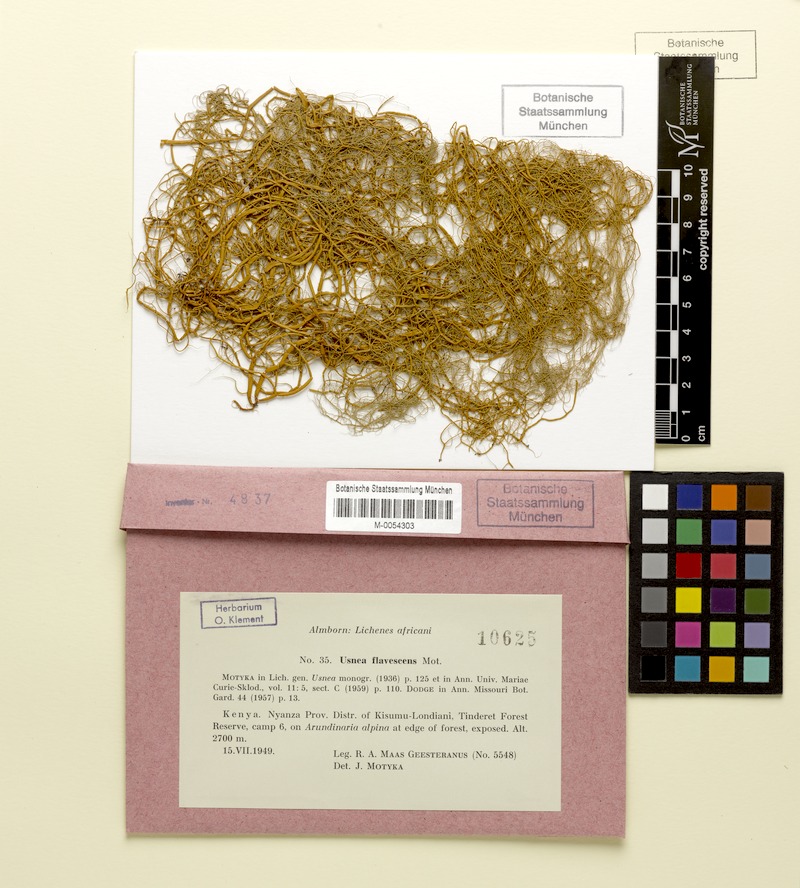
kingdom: Fungi
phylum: Ascomycota
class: Lecanoromycetes
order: Lecanorales
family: Parmeliaceae
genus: Usnea
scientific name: Usnea flavescens
